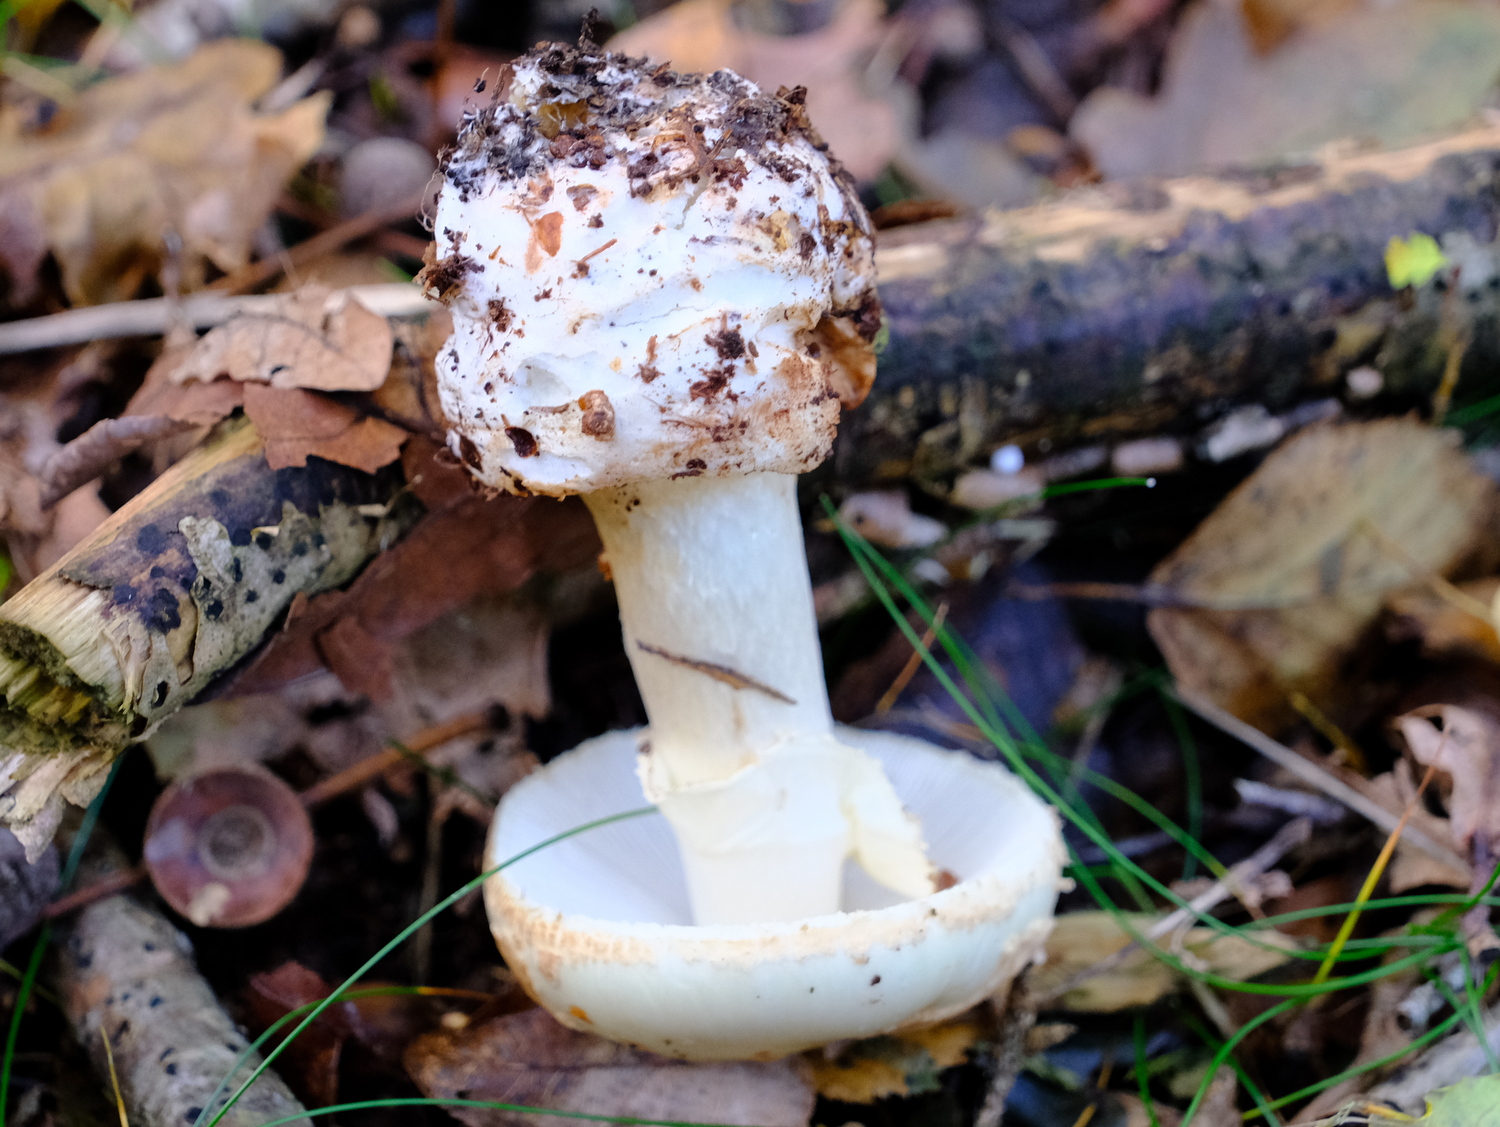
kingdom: Fungi
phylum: Basidiomycota
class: Agaricomycetes
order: Agaricales
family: Amanitaceae
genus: Amanita
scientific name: Amanita citrina
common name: False death-cap
